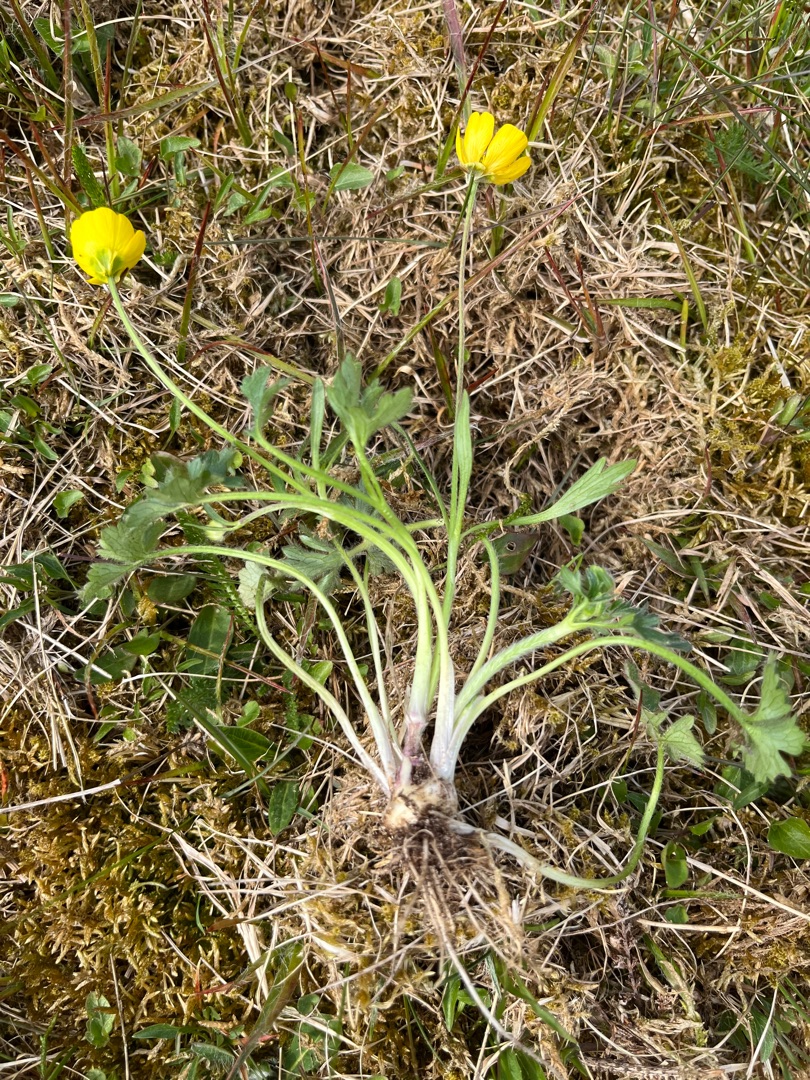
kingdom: Plantae
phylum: Tracheophyta
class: Magnoliopsida
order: Ranunculales
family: Ranunculaceae
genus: Ranunculus
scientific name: Ranunculus bulbosus
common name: Knold-ranunkel
